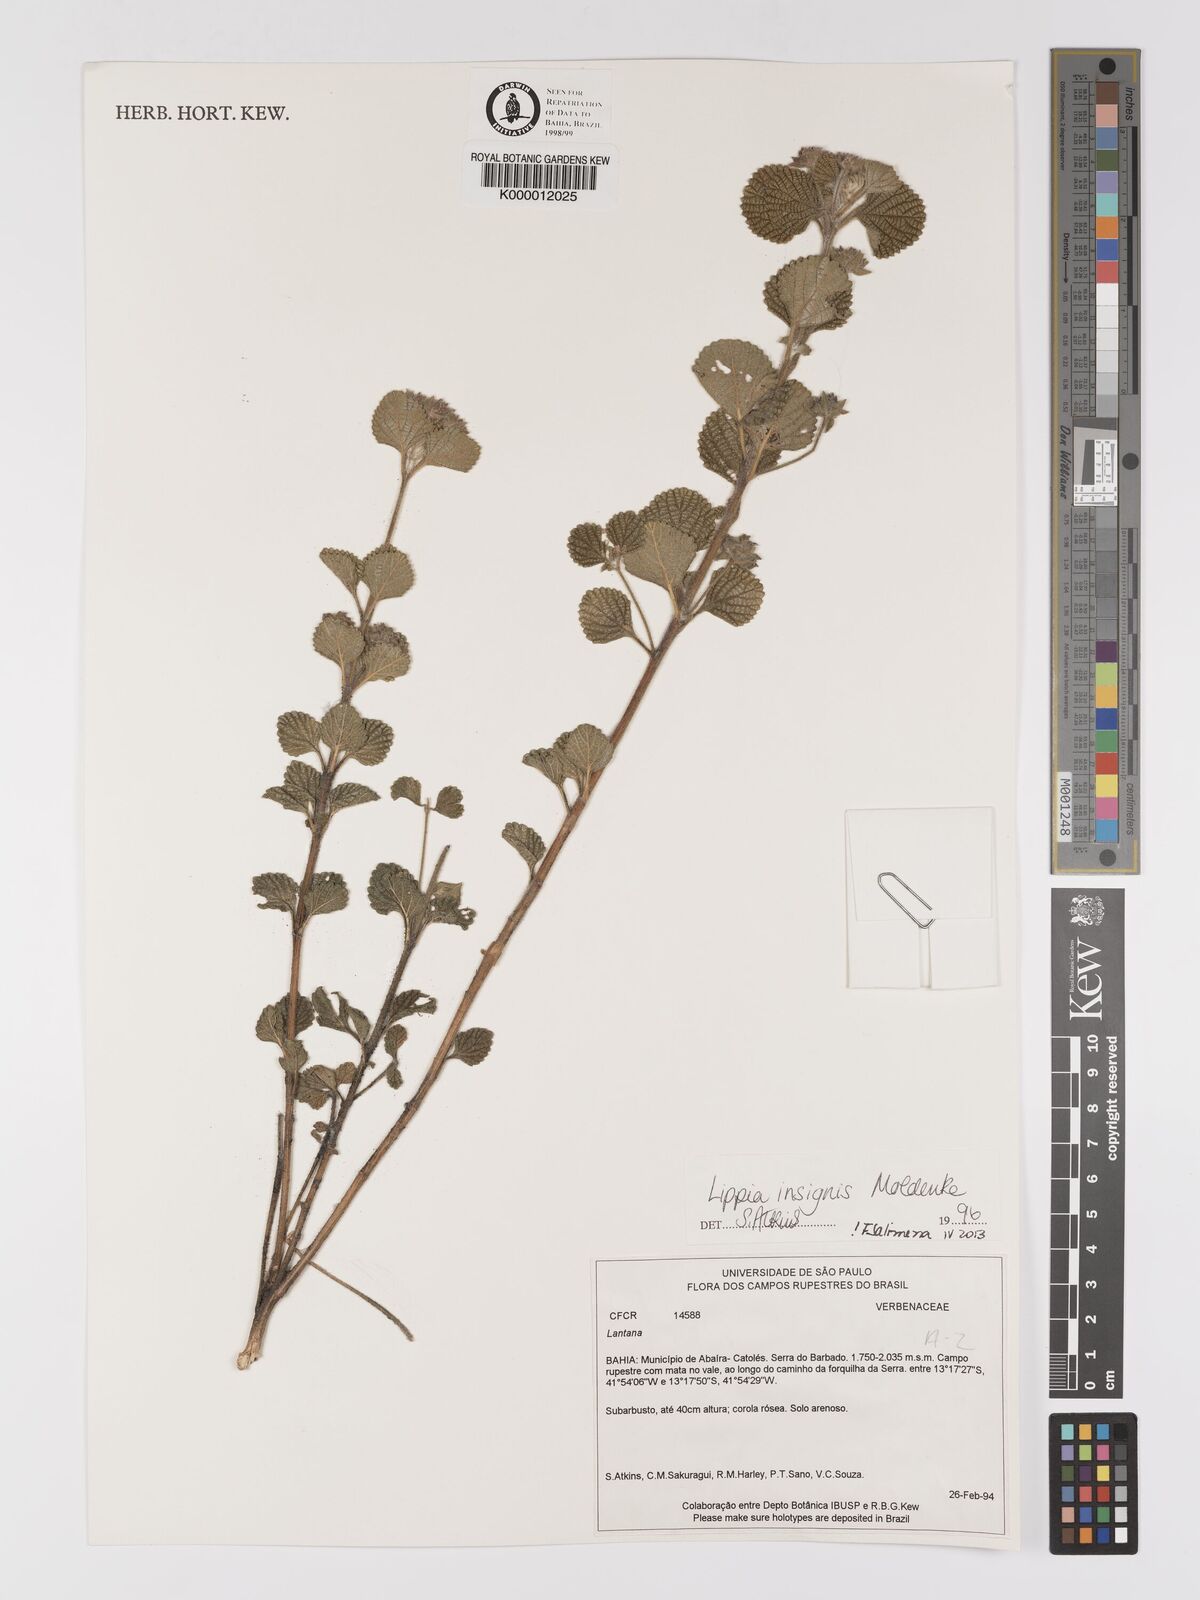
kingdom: Plantae
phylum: Tracheophyta
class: Magnoliopsida
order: Lamiales
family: Verbenaceae
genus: Lippia
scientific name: Lippia insignis
